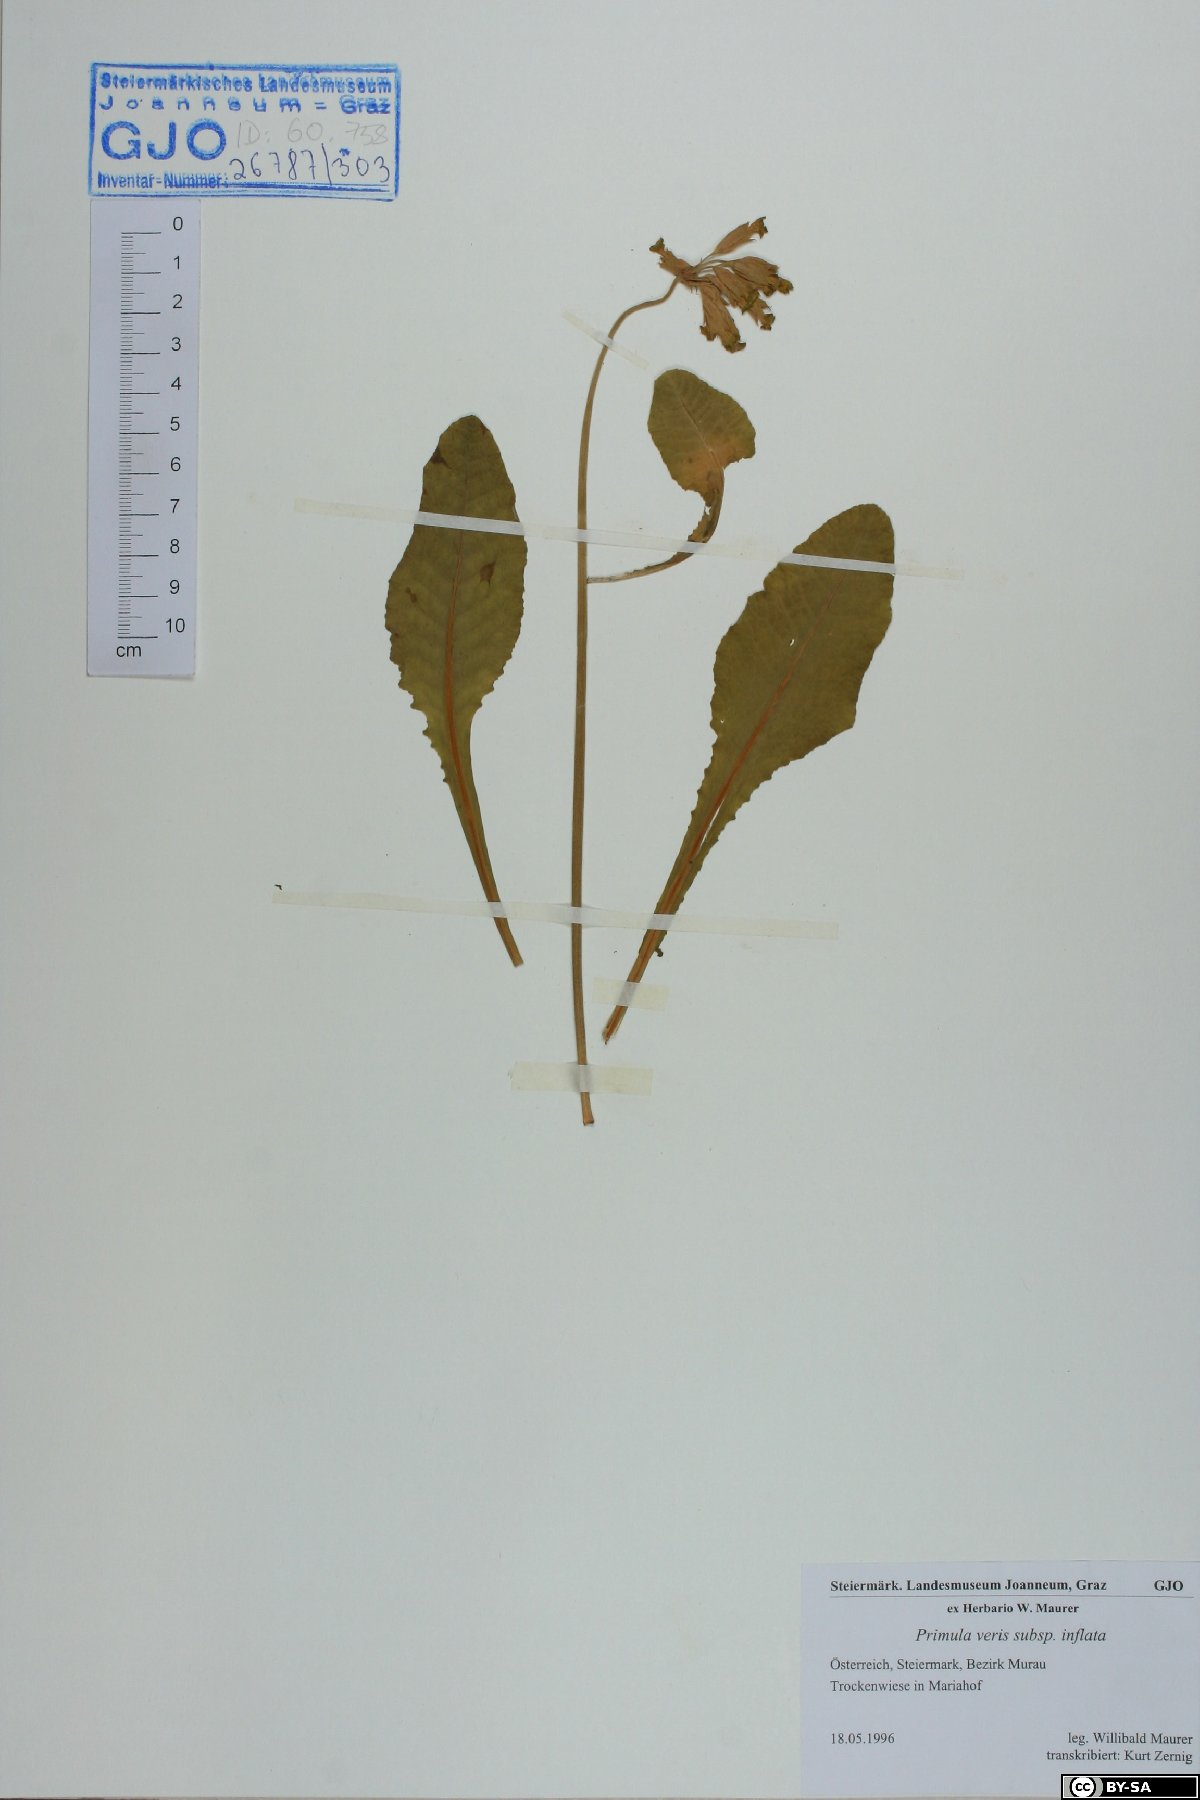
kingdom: Plantae
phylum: Tracheophyta
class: Magnoliopsida
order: Ericales
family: Primulaceae
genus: Primula
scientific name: Primula veris
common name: Cowslip
